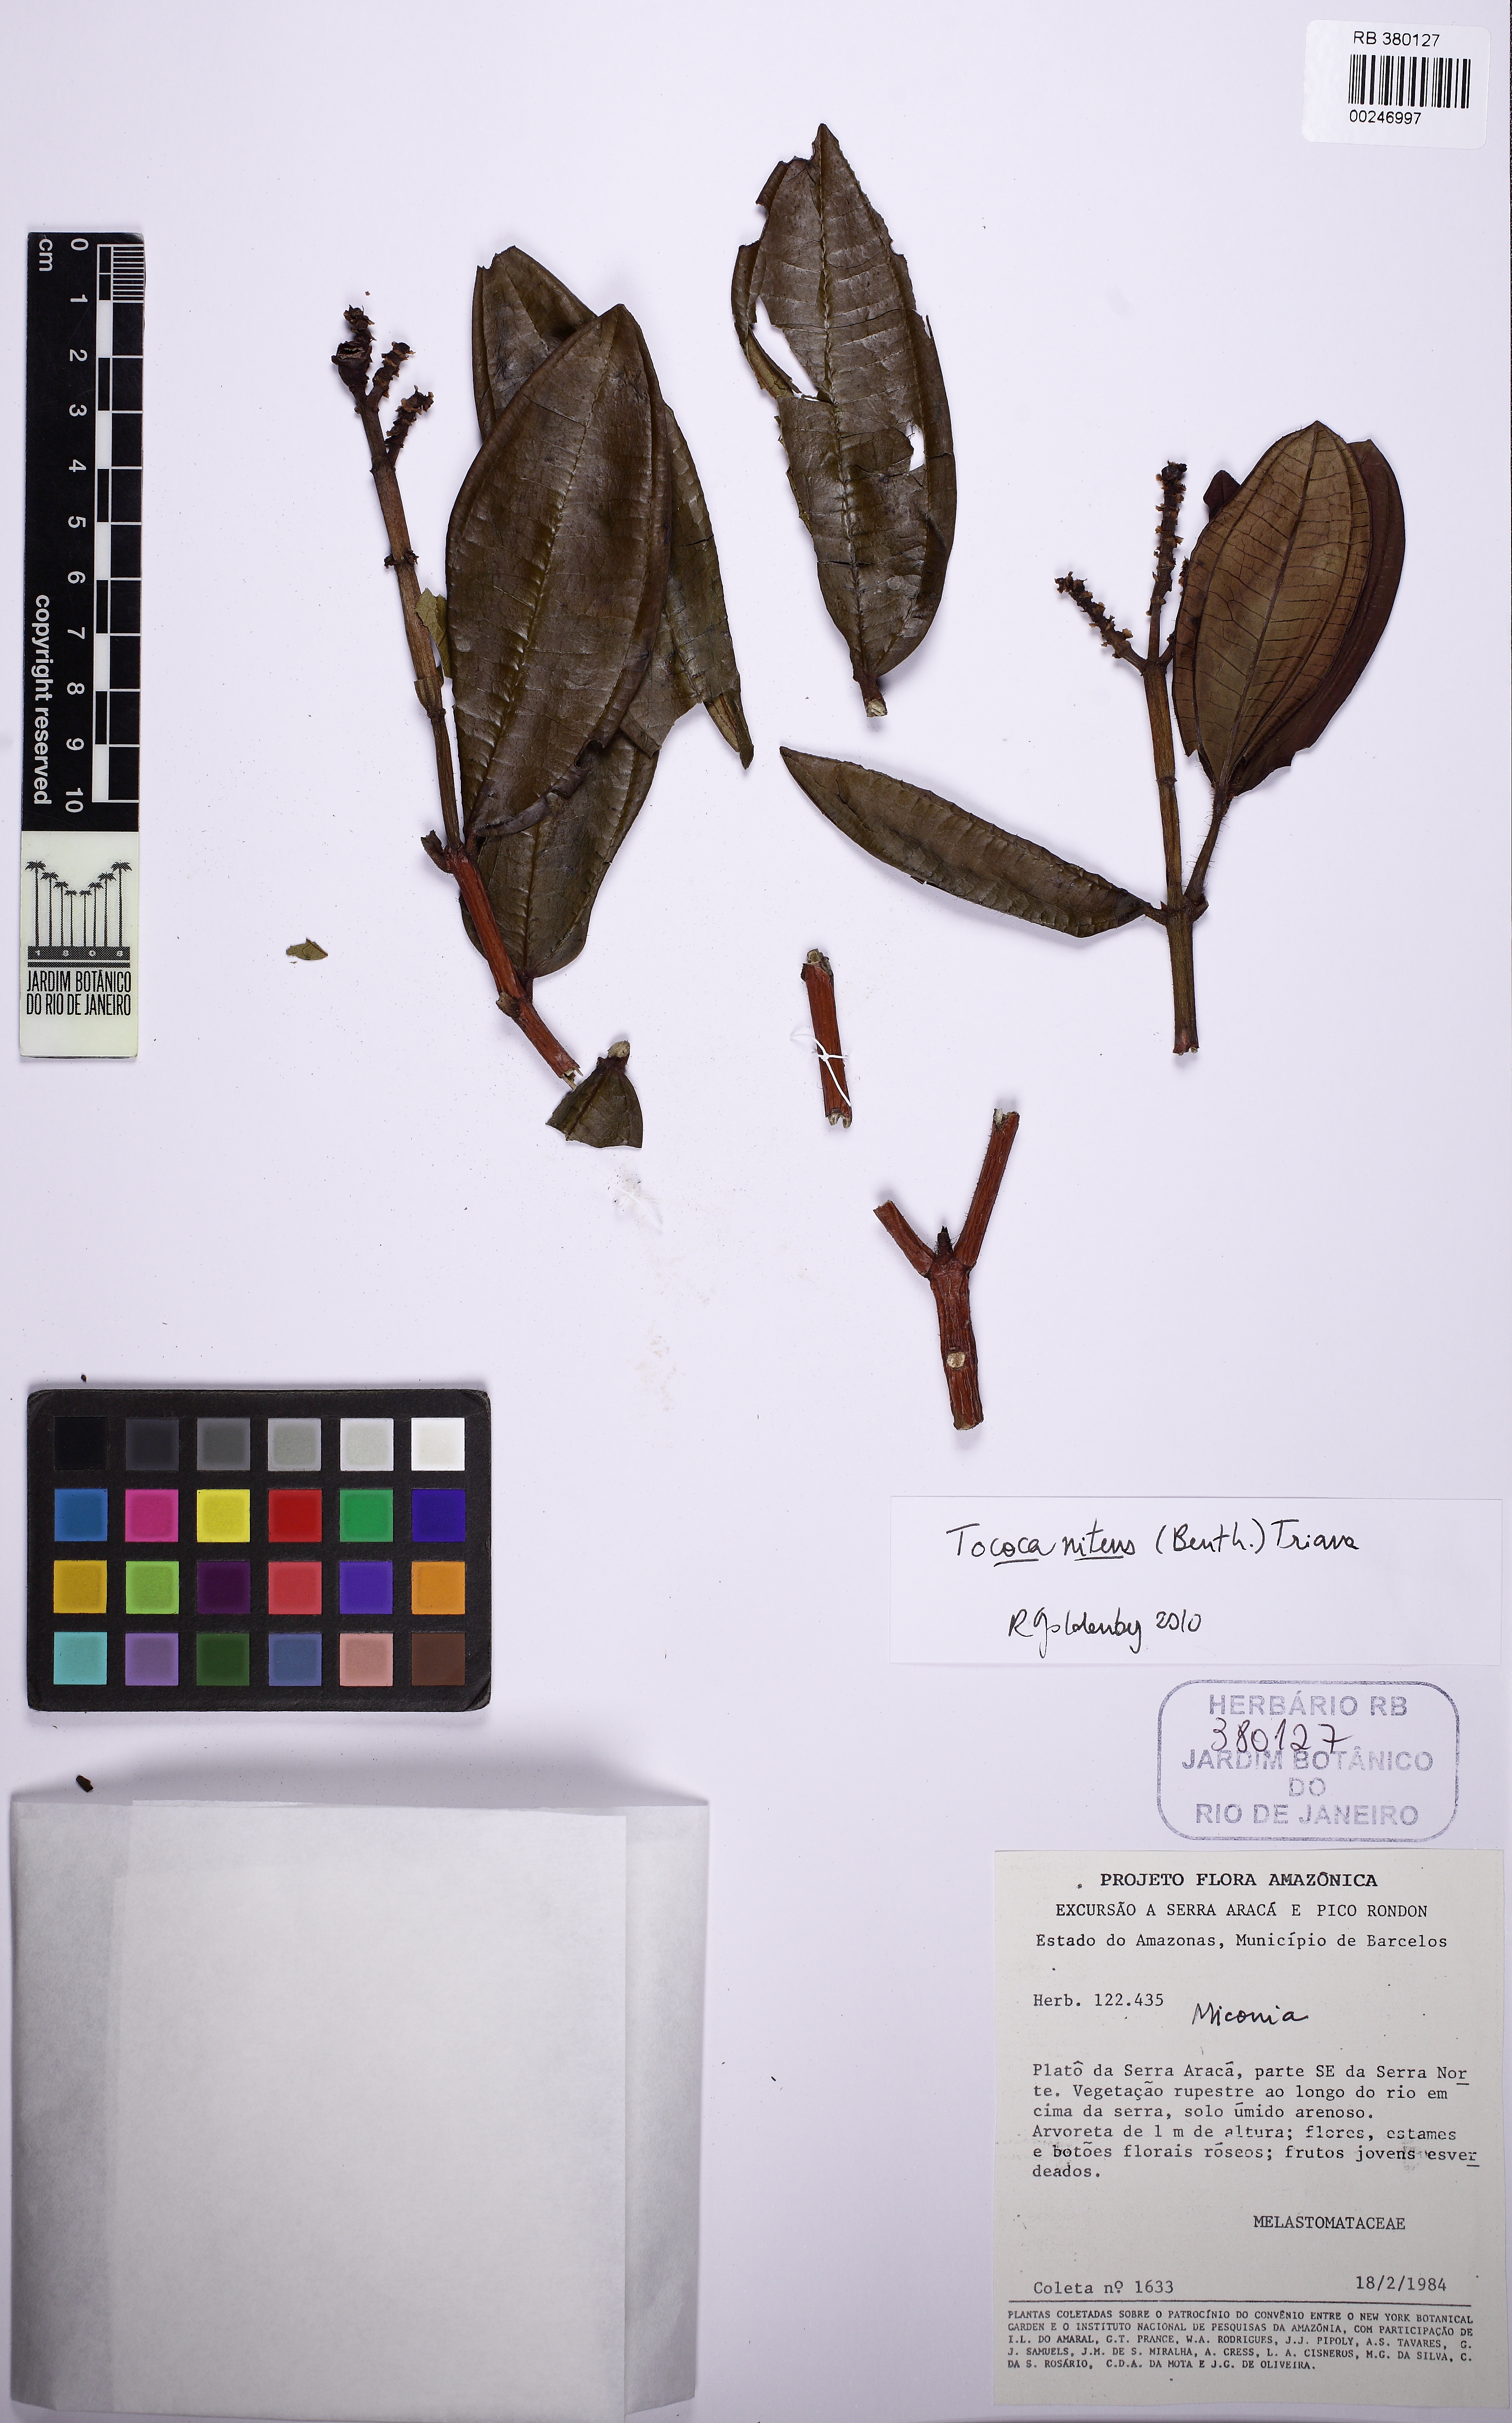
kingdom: Plantae
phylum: Tracheophyta
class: Magnoliopsida
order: Myrtales
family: Melastomataceae
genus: Miconia
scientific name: Miconia nitens
